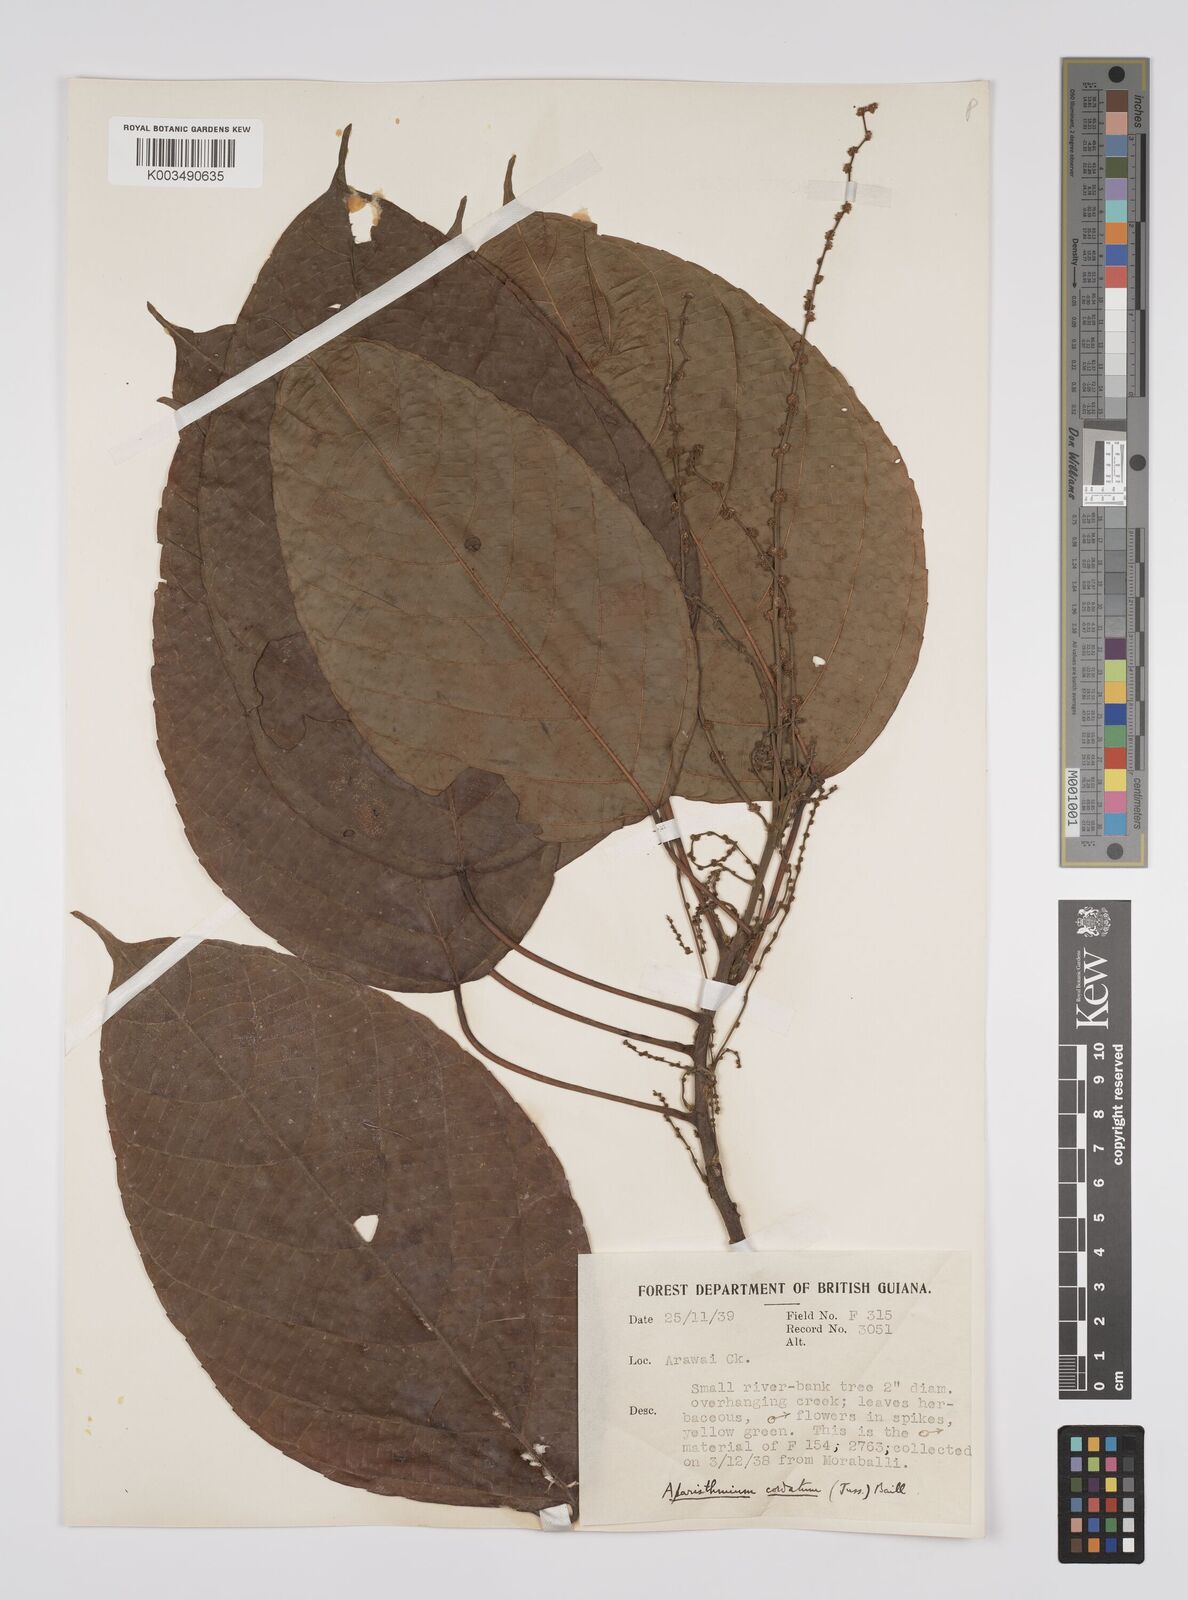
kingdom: Plantae
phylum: Tracheophyta
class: Magnoliopsida
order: Malpighiales
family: Euphorbiaceae
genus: Aparisthmium
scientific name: Aparisthmium cordatum
